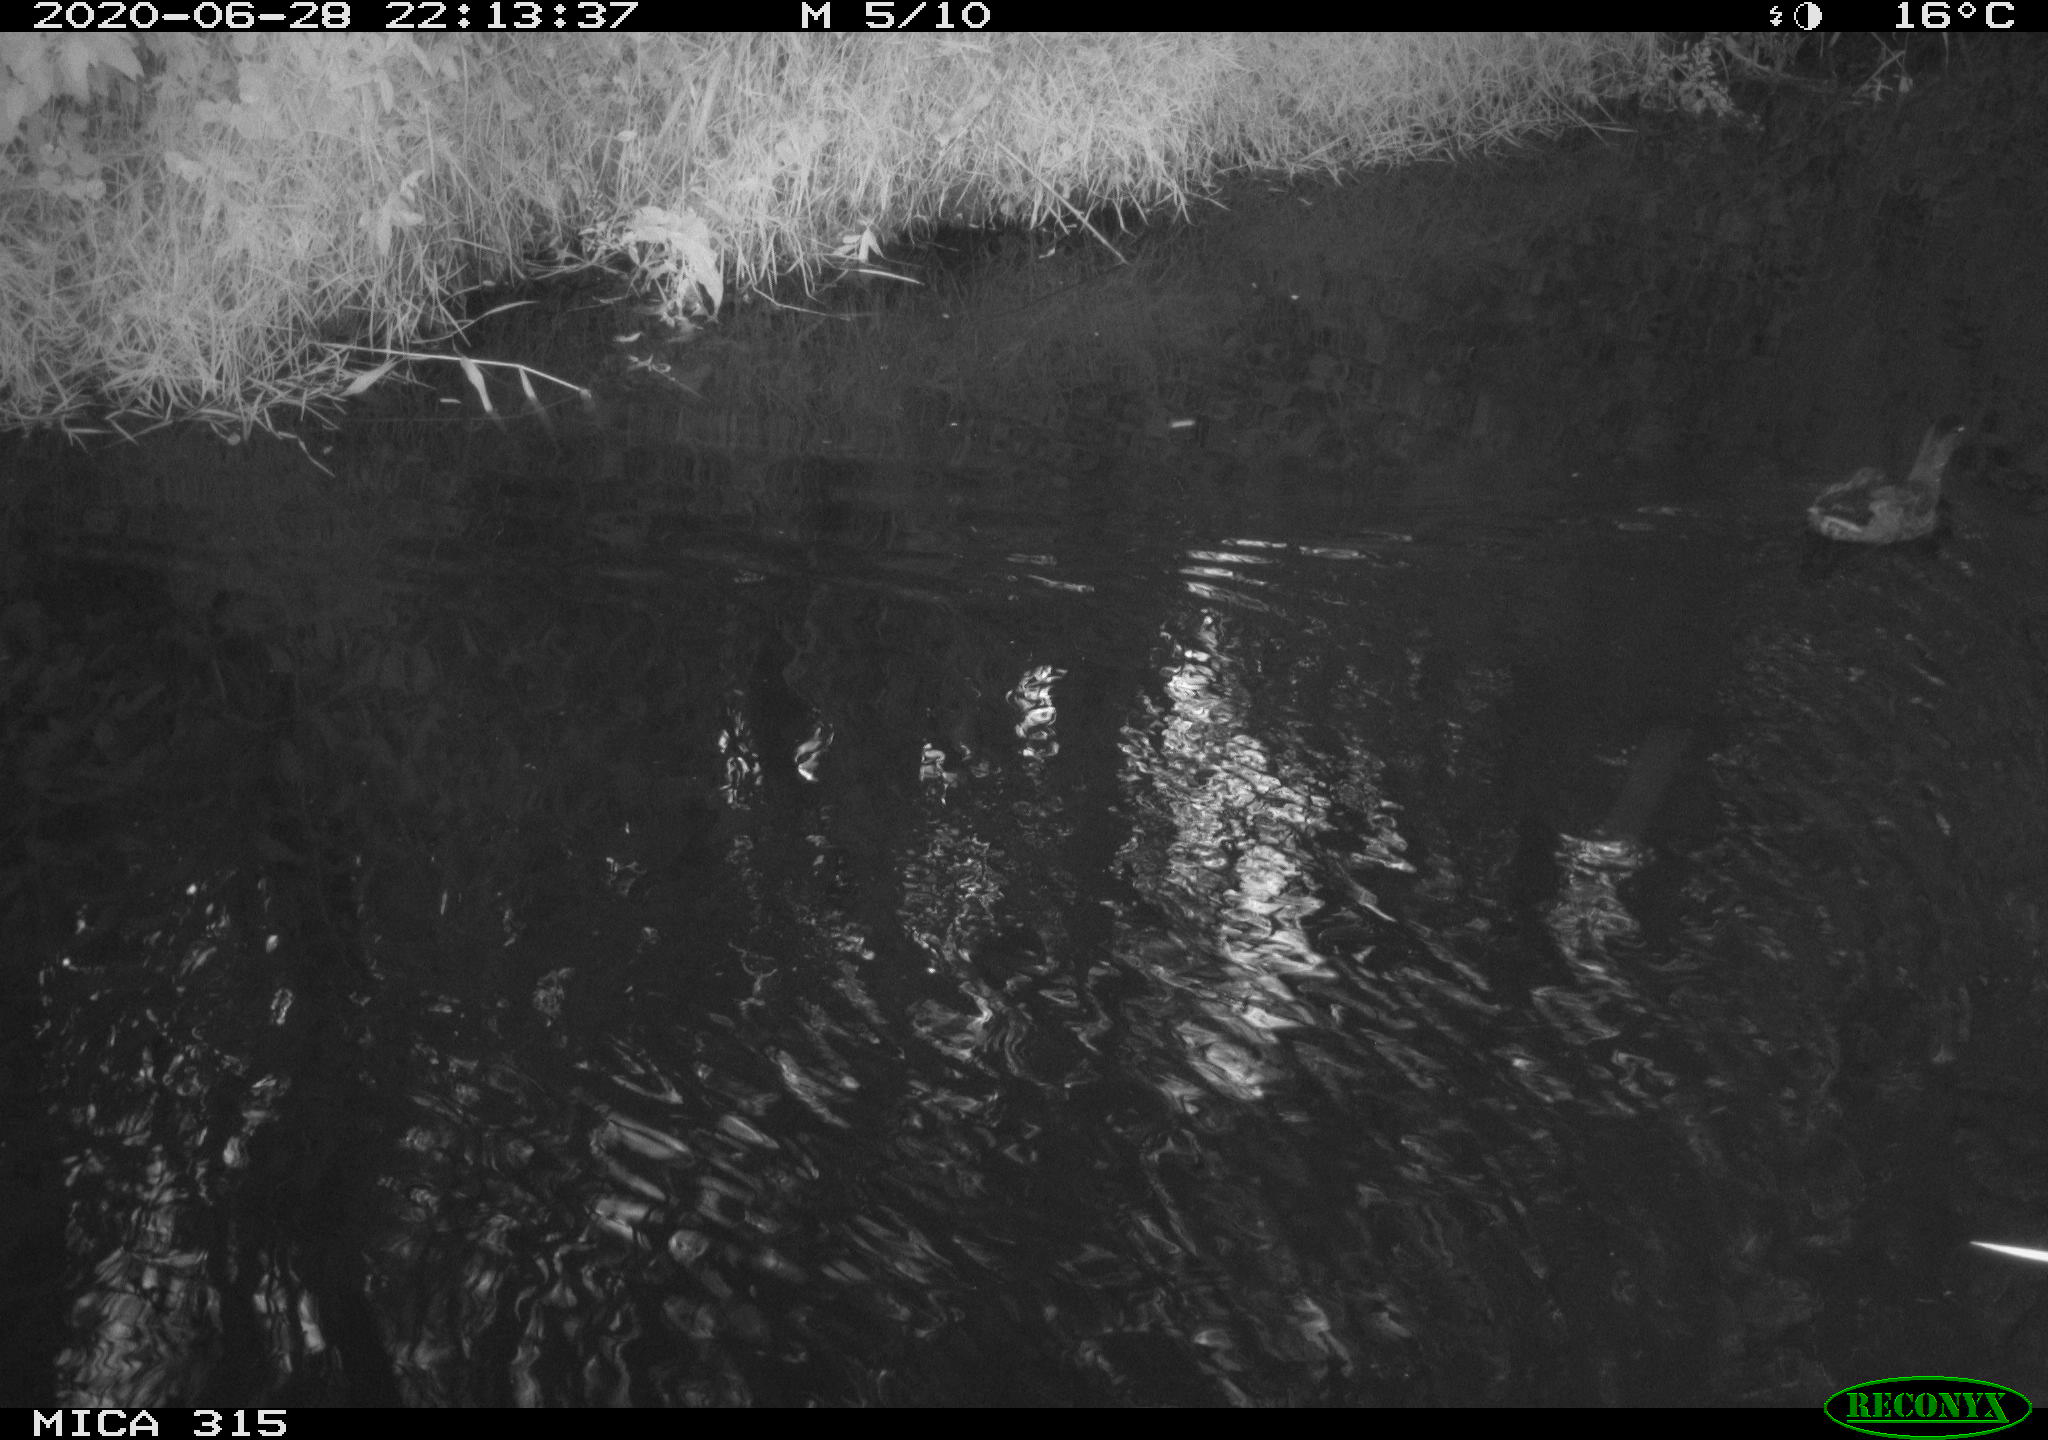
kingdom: Animalia
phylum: Chordata
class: Aves
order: Anseriformes
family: Anatidae
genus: Anas
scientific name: Anas platyrhynchos
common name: Mallard
